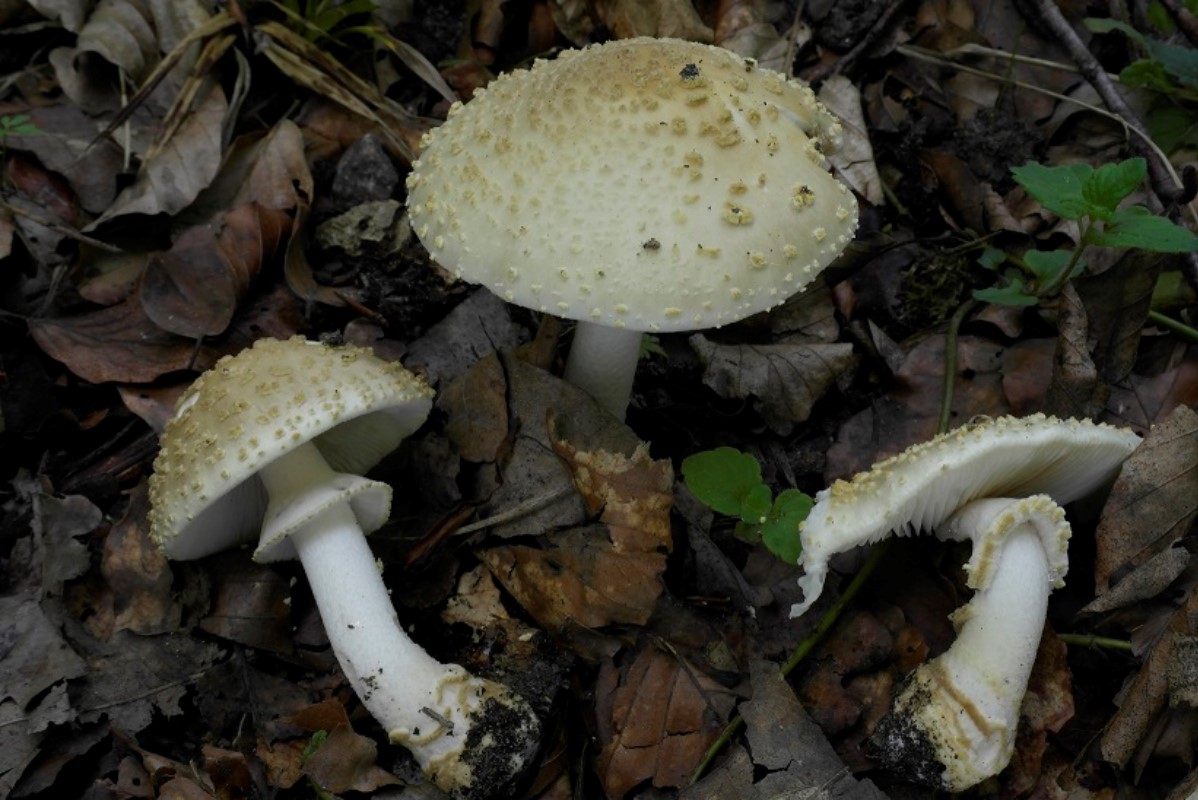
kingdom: Fungi
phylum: Basidiomycota
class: Agaricomycetes
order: Agaricales
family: Amanitaceae
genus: Amanita
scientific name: Amanita franchetii
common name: gulrandet fluesvamp
